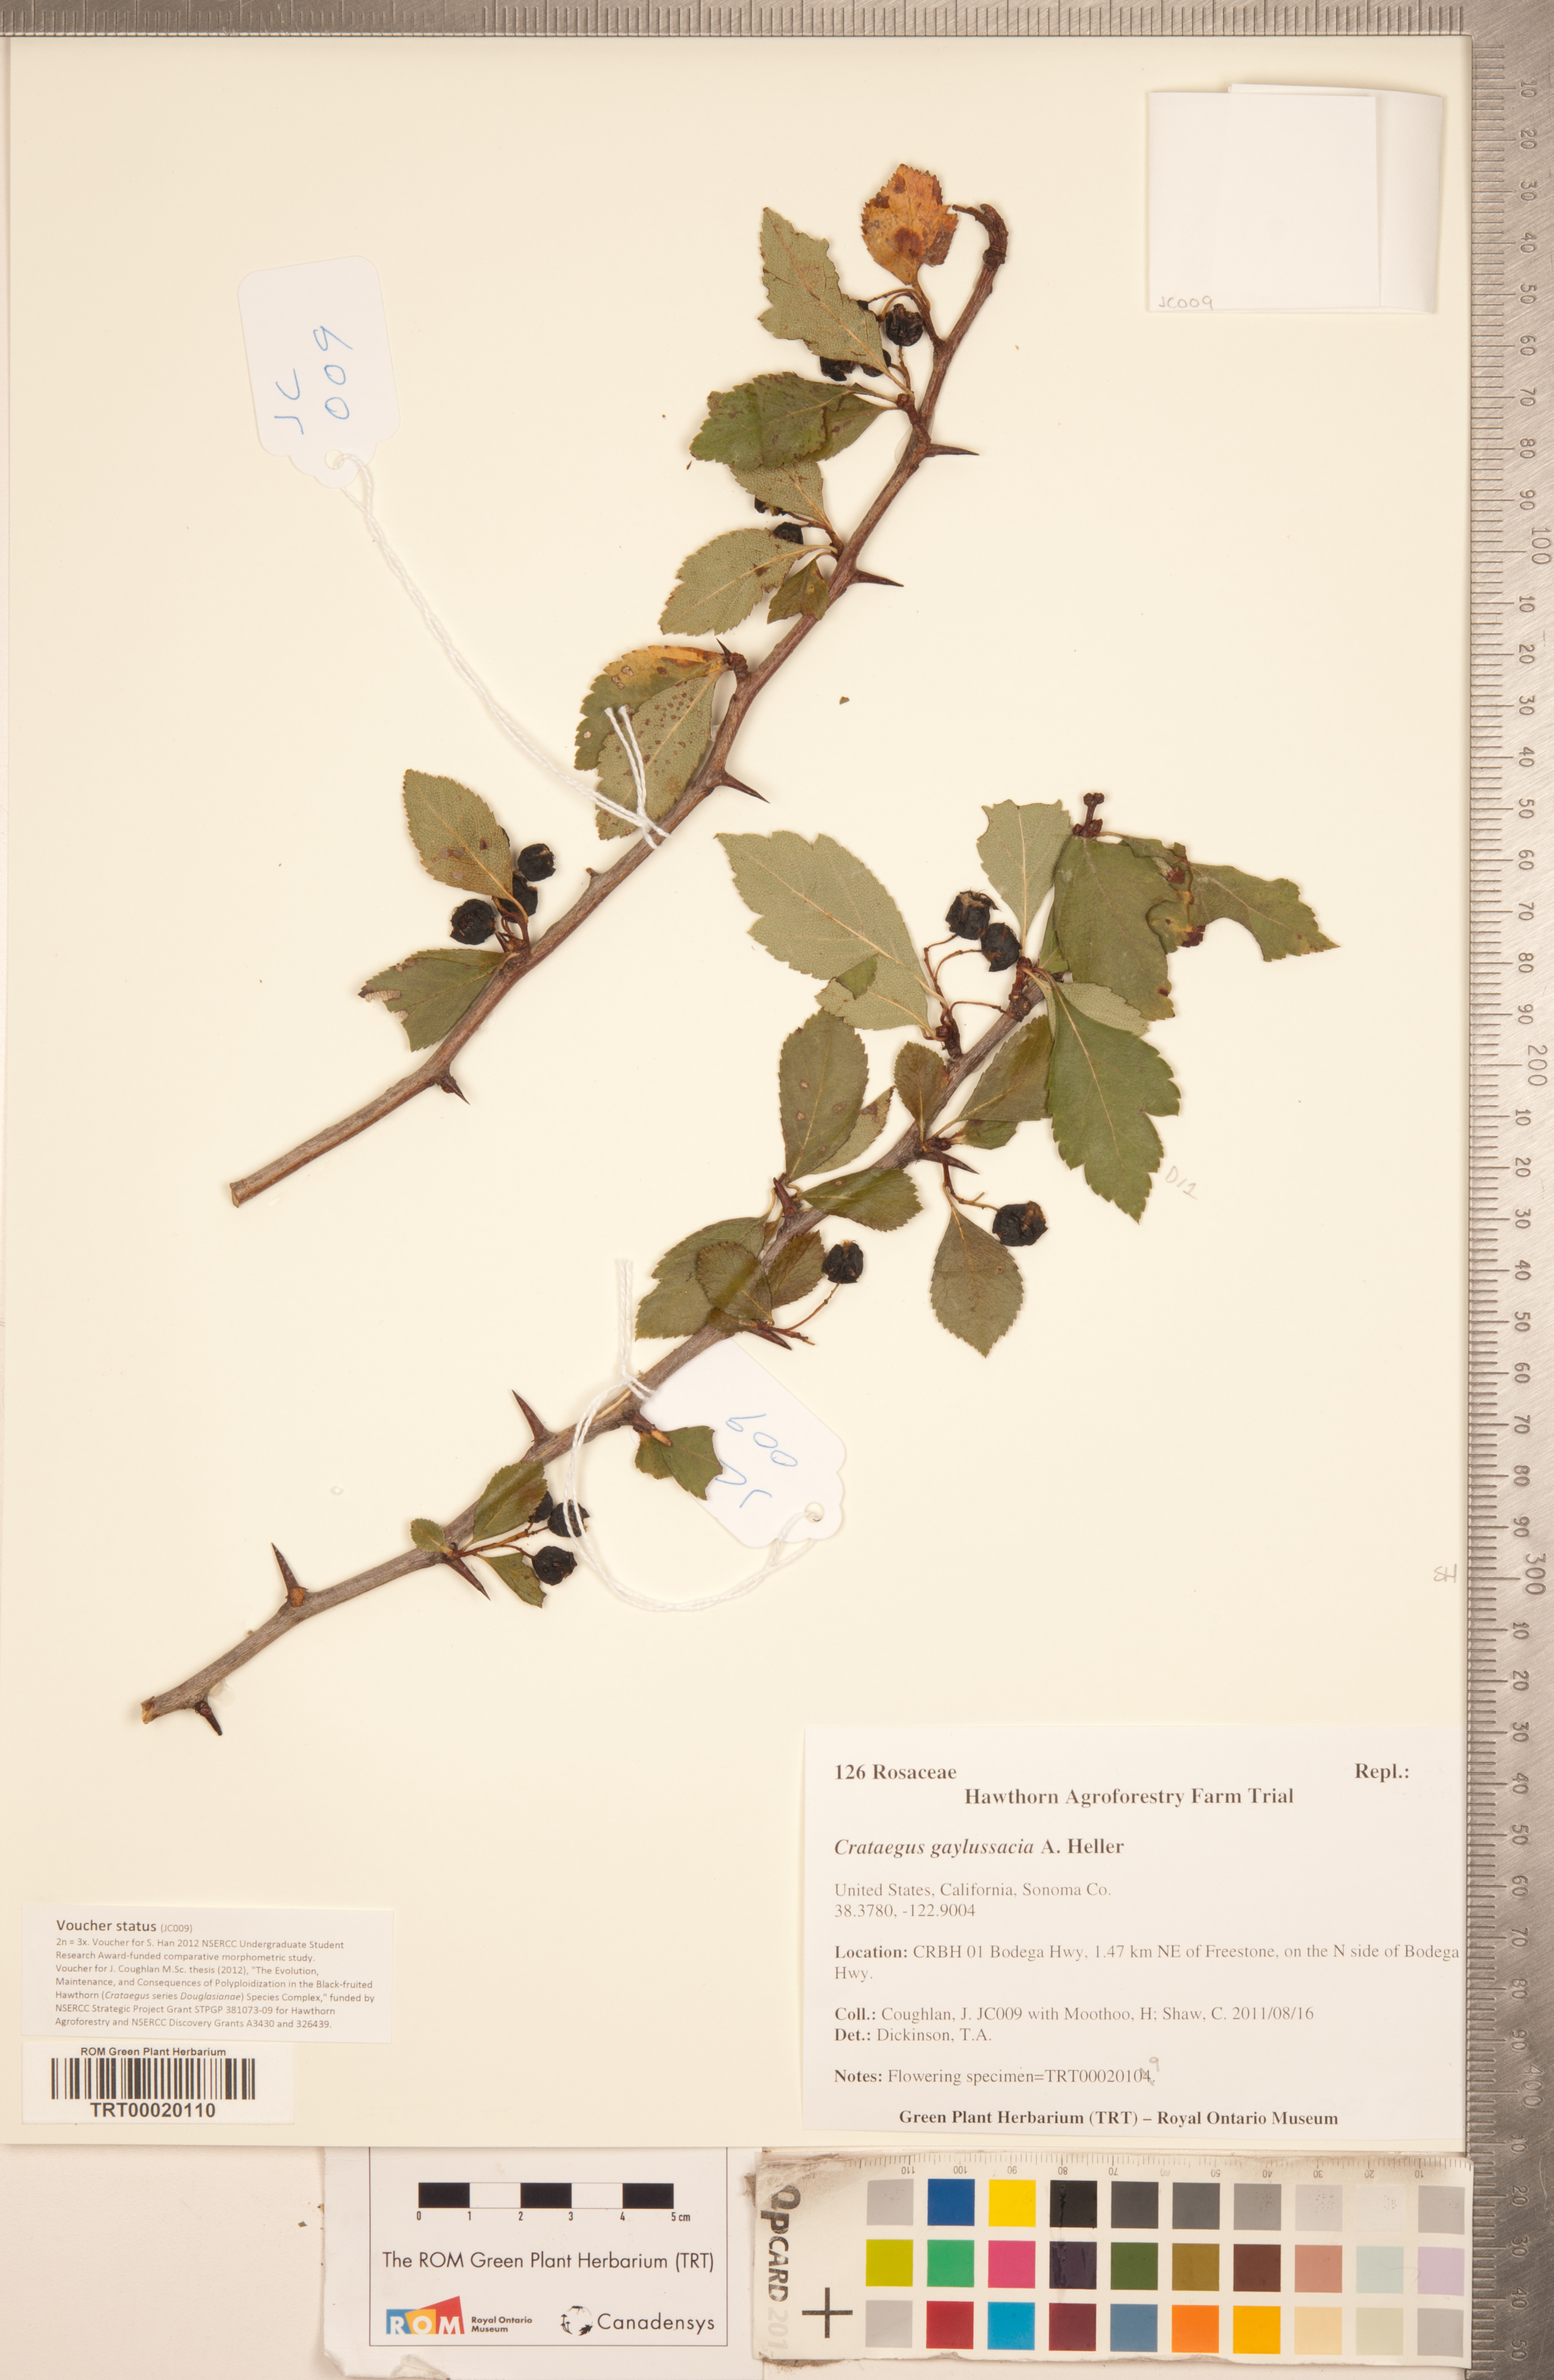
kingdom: Plantae
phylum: Tracheophyta
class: Magnoliopsida
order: Rosales
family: Rosaceae
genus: Crataegus
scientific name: Crataegus gaylussacia
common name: Huckleberry hawthorn
